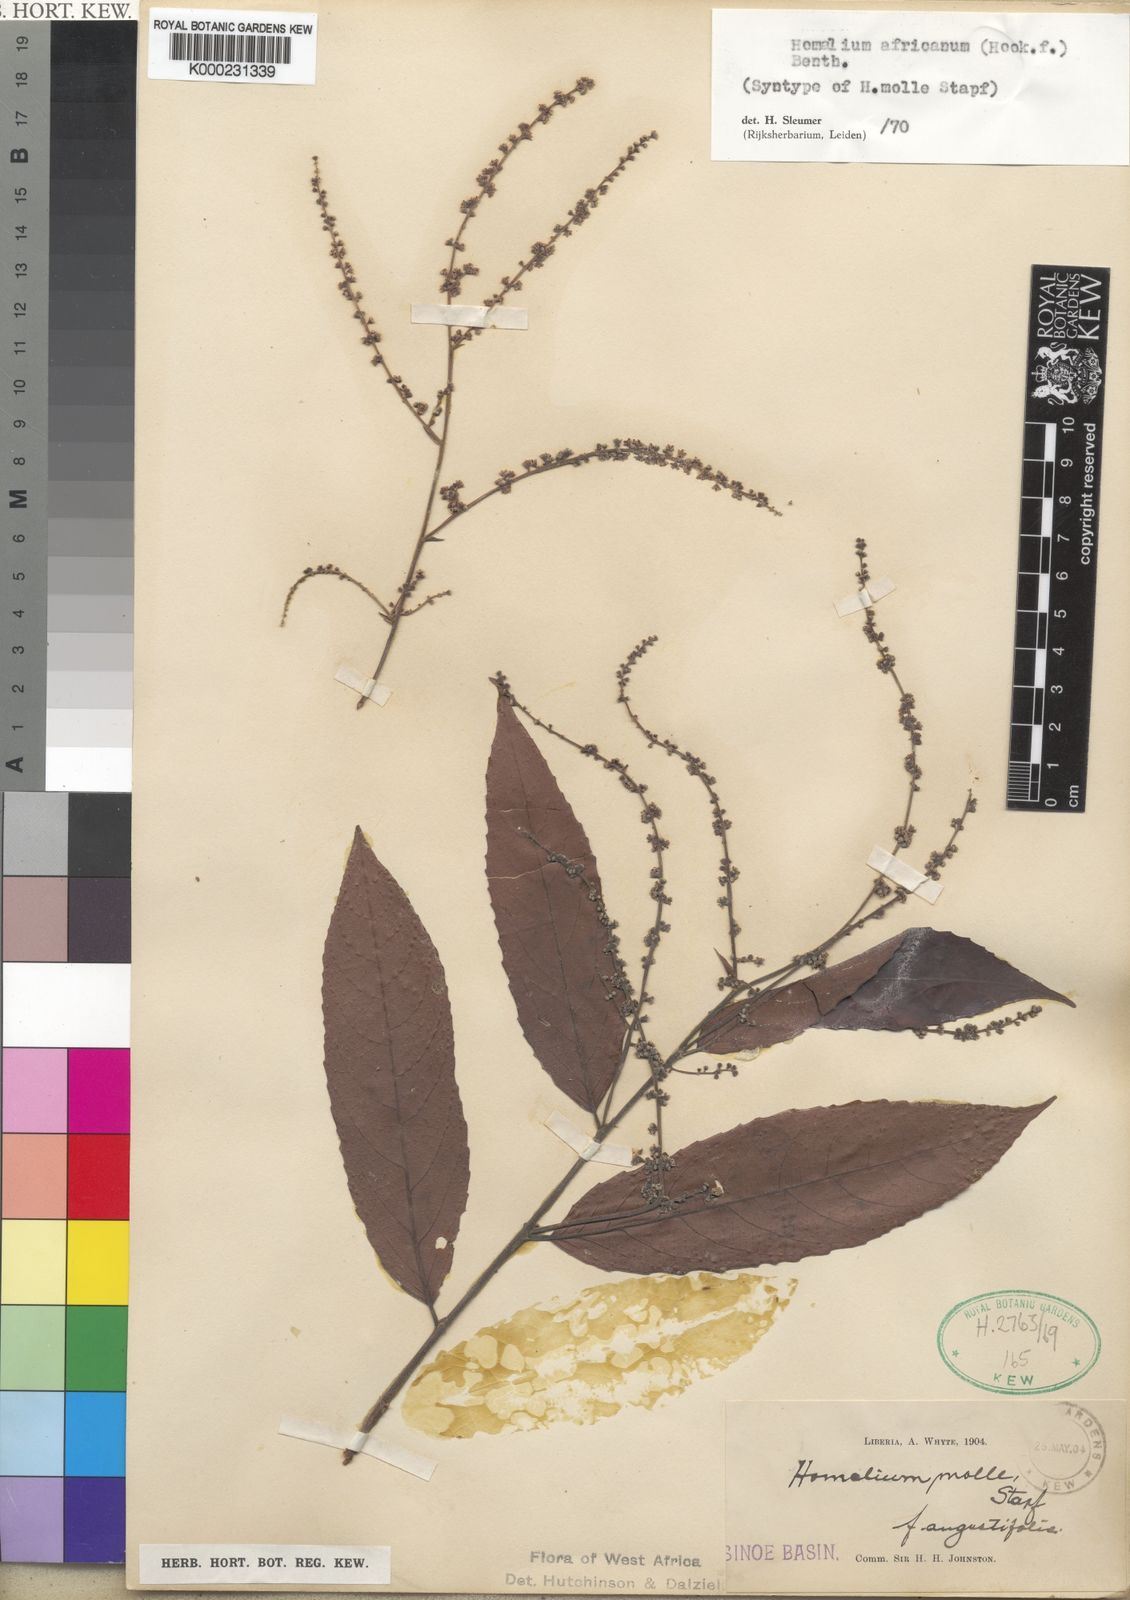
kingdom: Plantae
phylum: Tracheophyta
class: Magnoliopsida
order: Malpighiales
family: Salicaceae
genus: Homalium
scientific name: Homalium africanum
